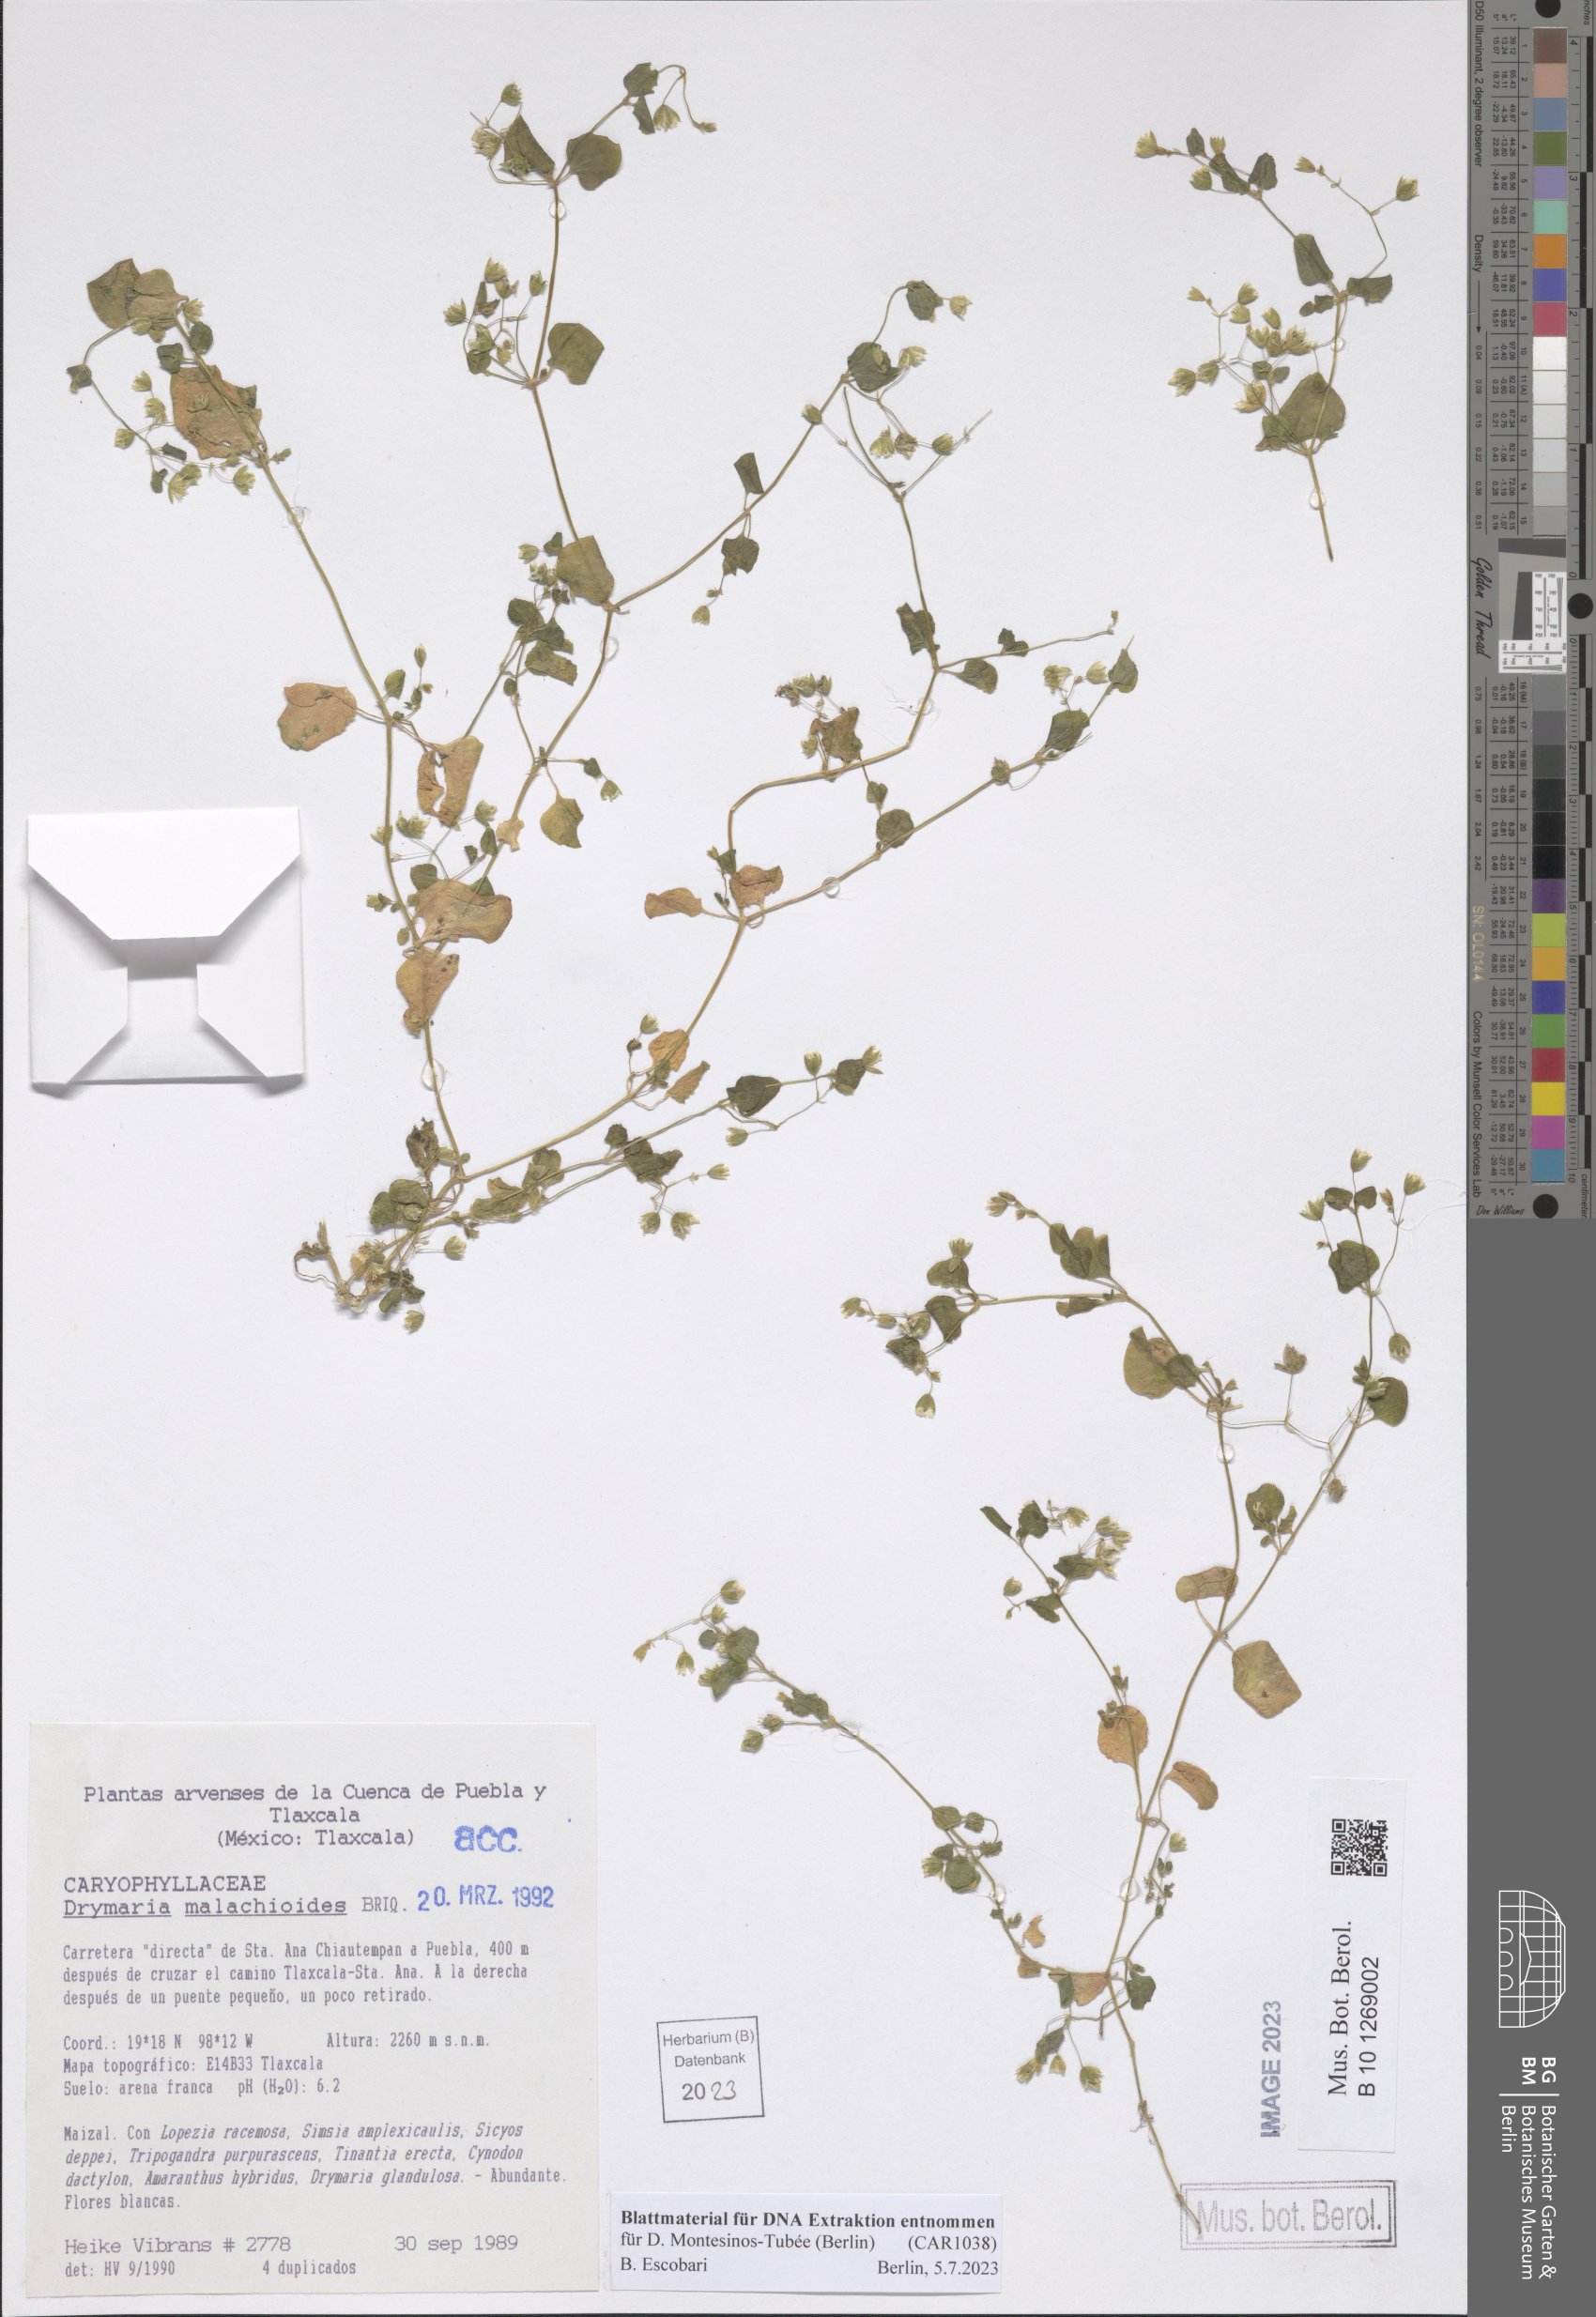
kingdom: Plantae
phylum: Tracheophyta
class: Magnoliopsida
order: Caryophyllales
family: Caryophyllaceae
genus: Drymaria
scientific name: Drymaria malachioides
